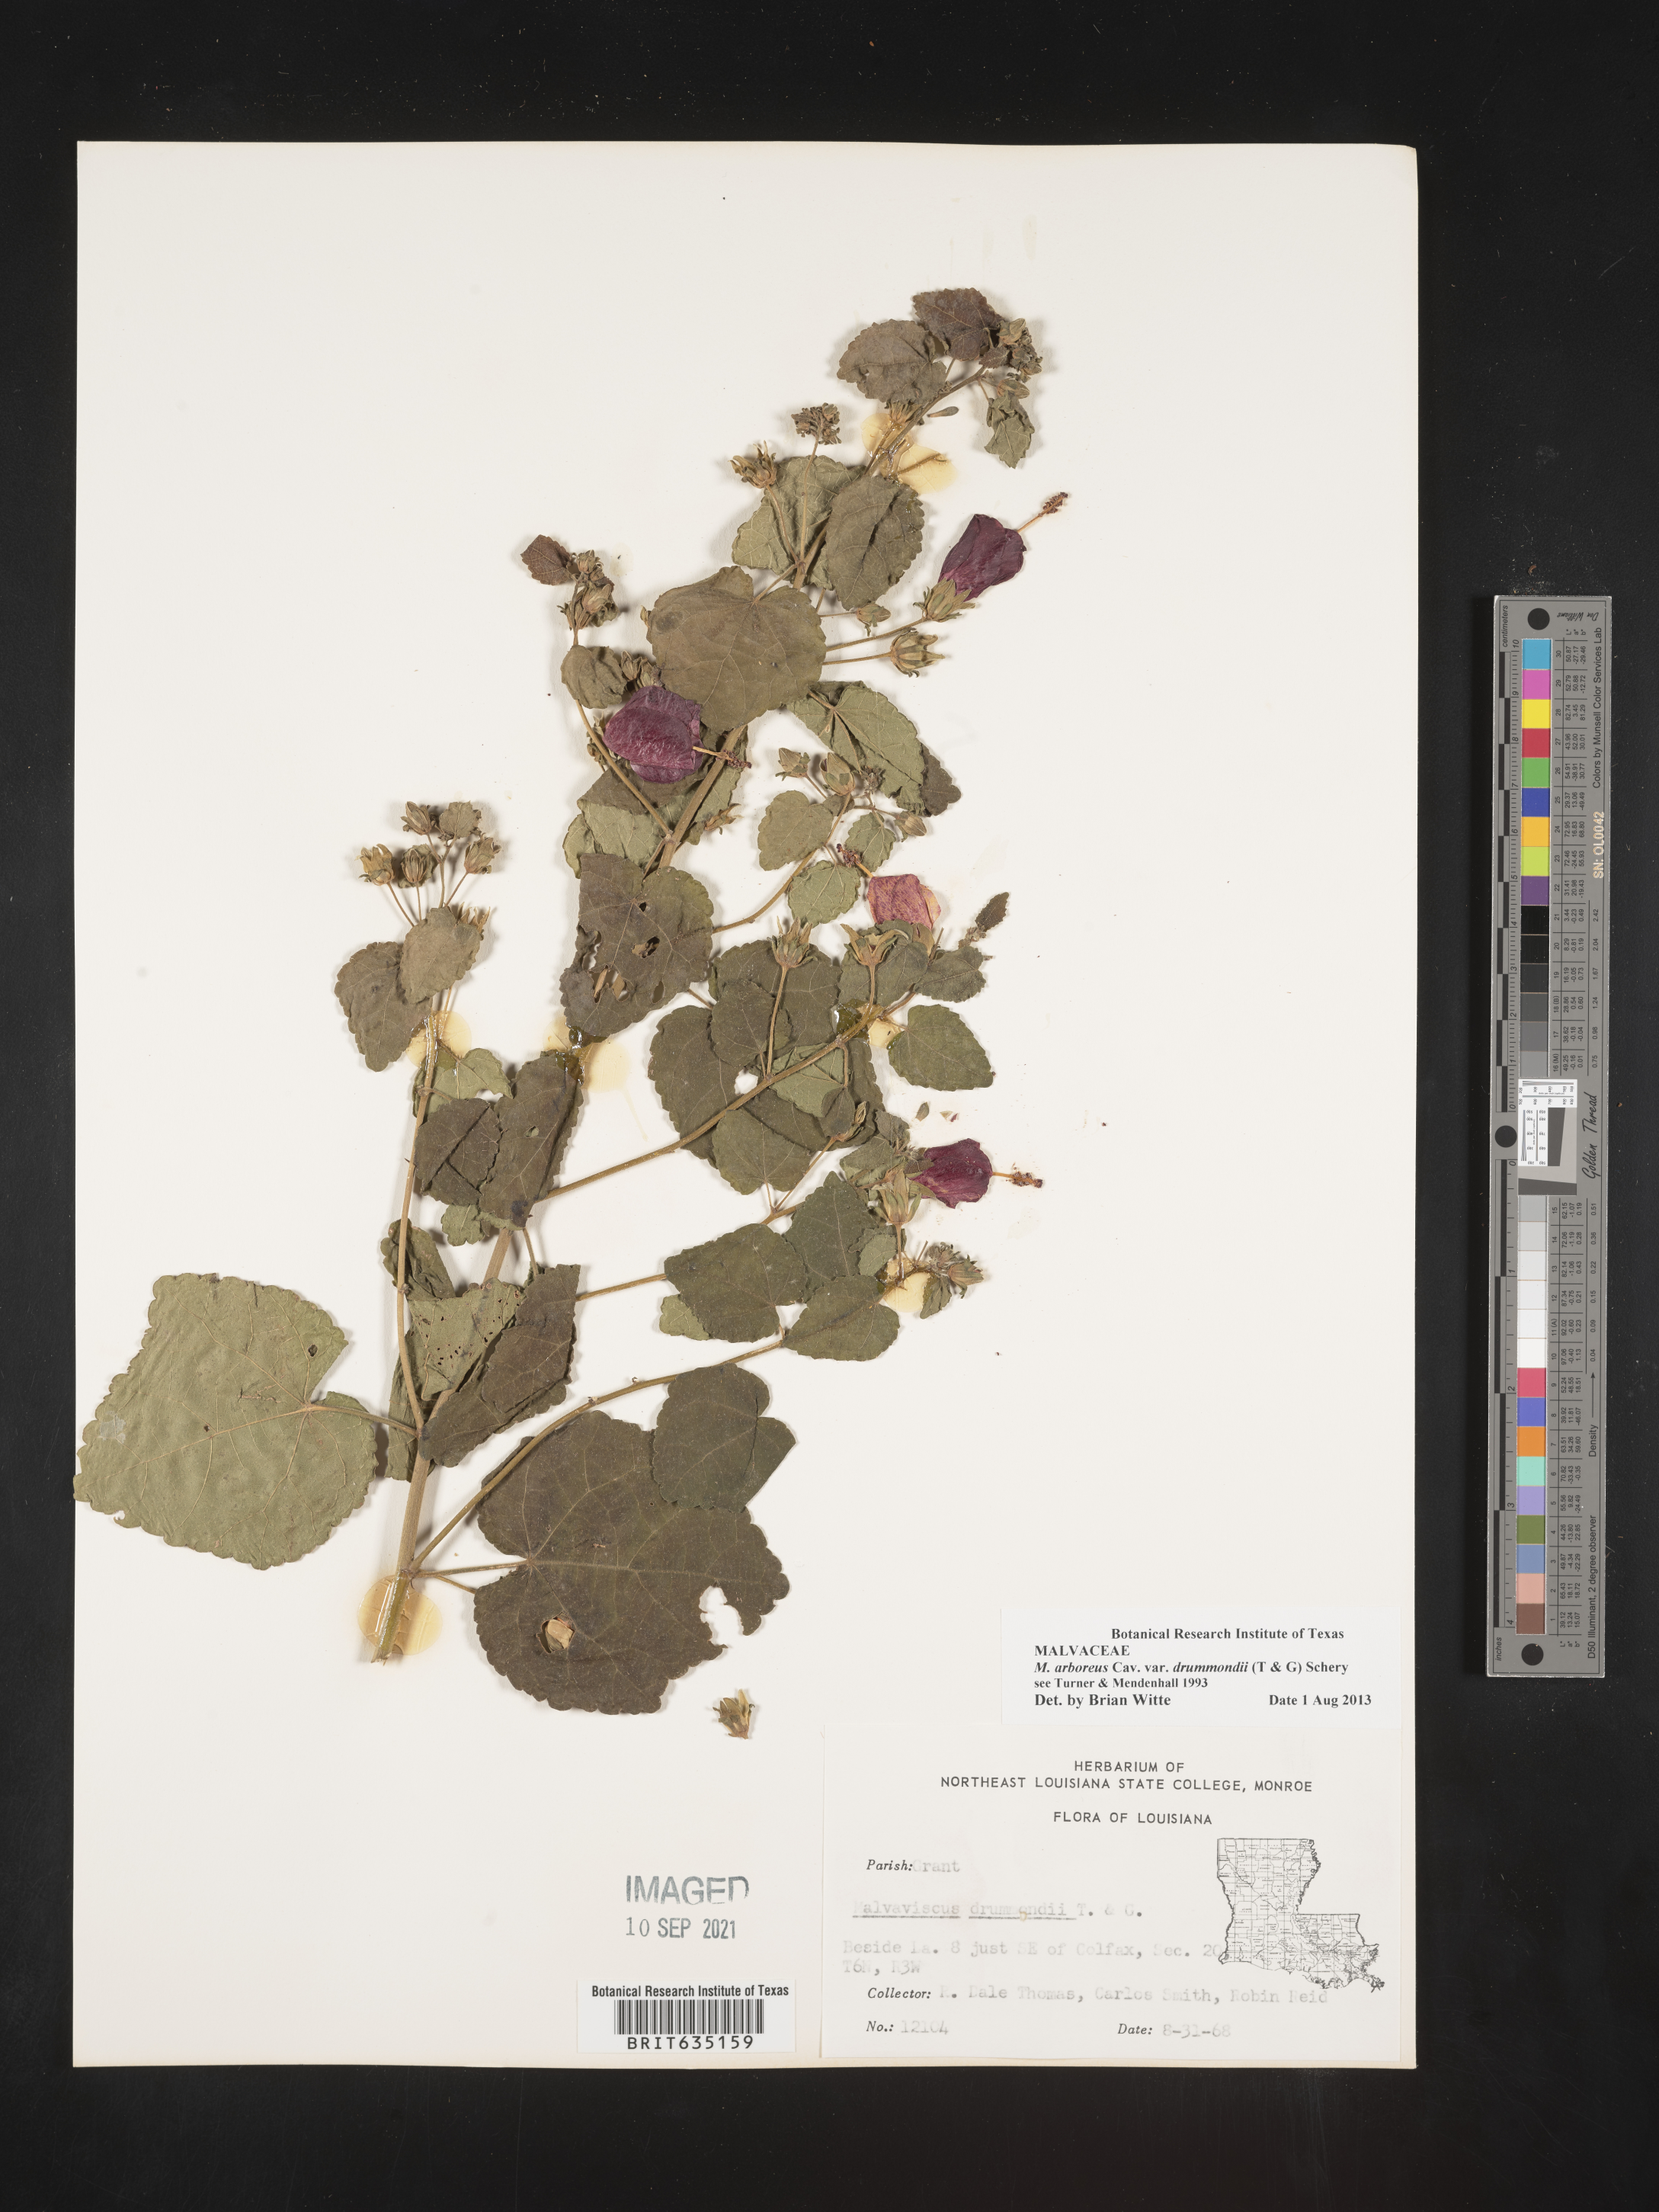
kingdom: Plantae
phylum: Tracheophyta
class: Magnoliopsida
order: Malvales
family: Malvaceae
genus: Malvaviscus
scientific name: Malvaviscus
